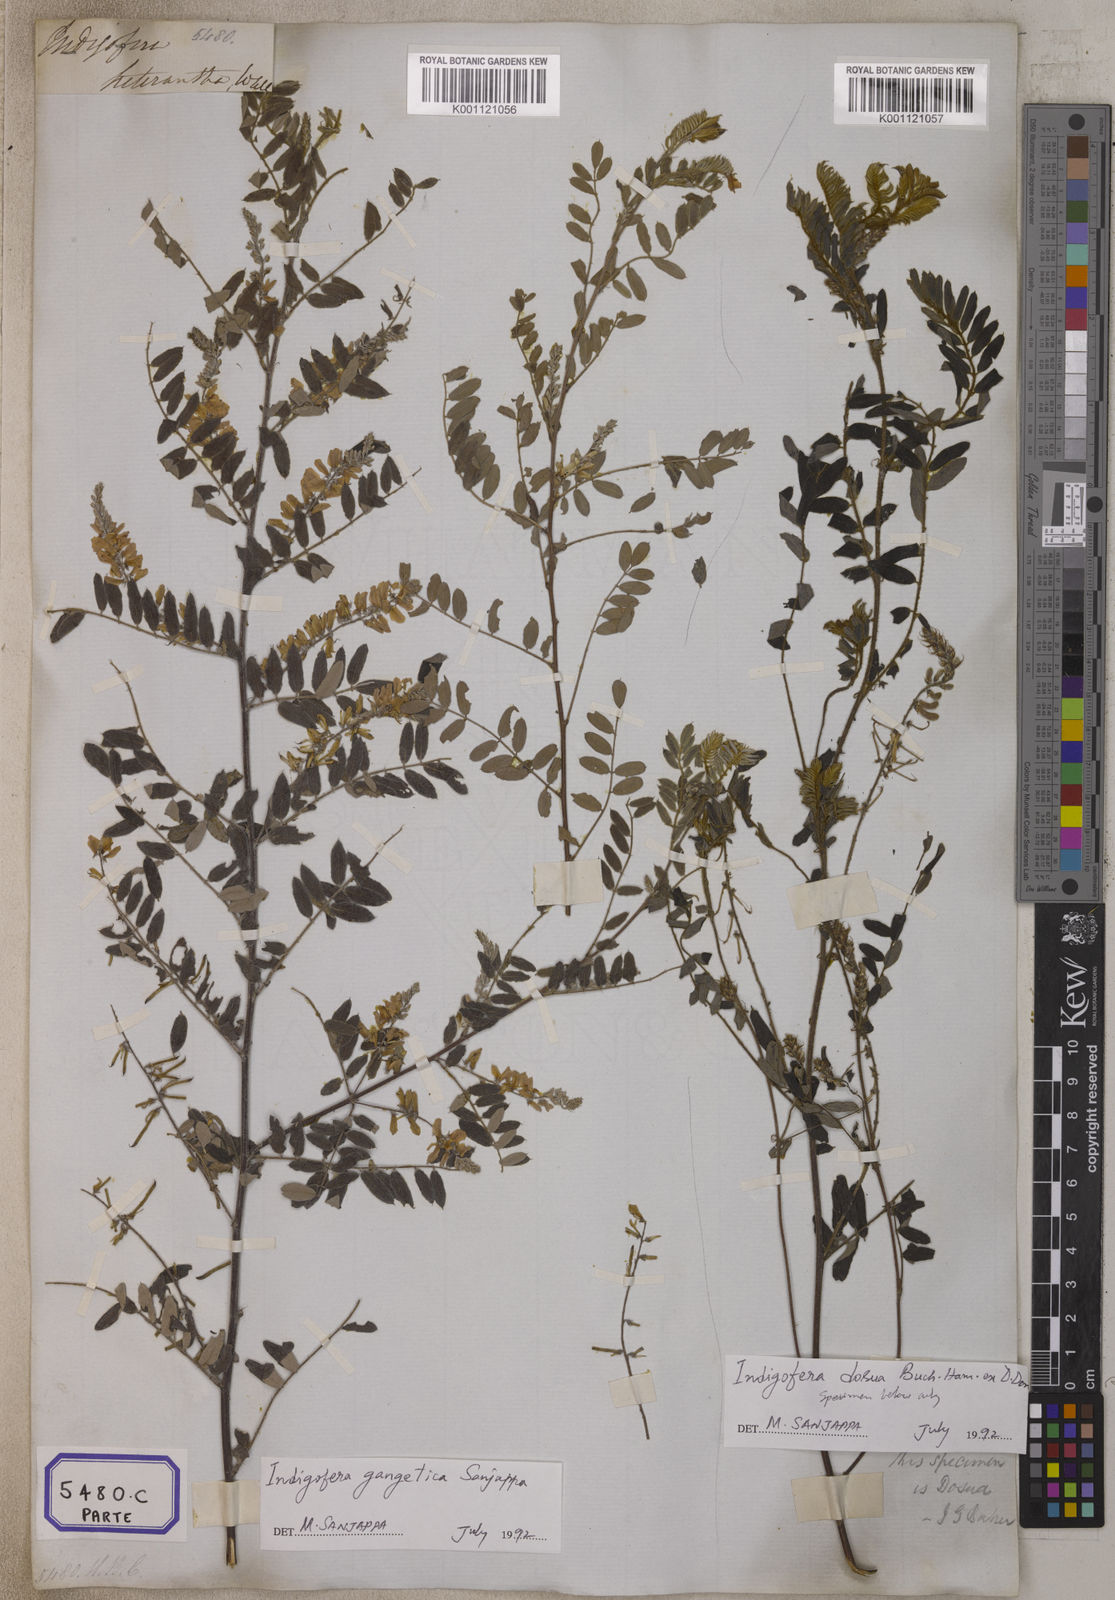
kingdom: Plantae
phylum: Tracheophyta
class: Magnoliopsida
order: Fabales
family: Fabaceae
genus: Indigofera
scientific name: Indigofera
